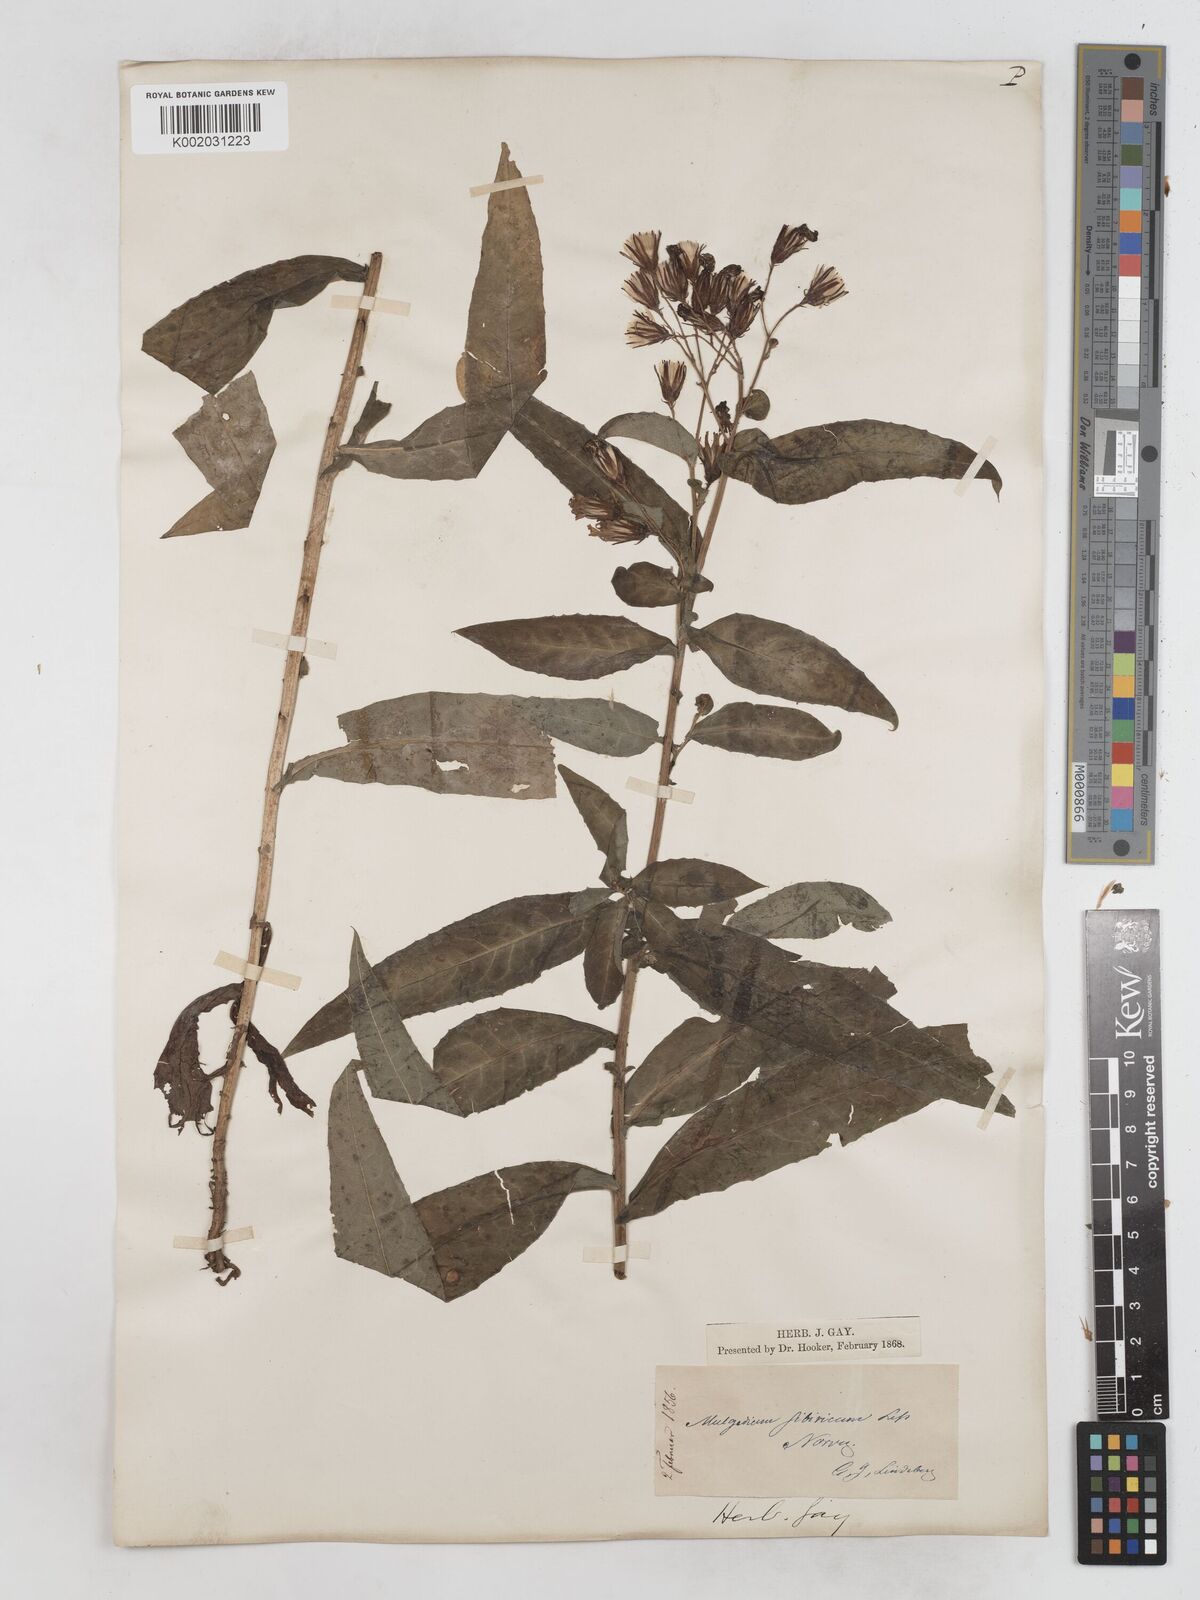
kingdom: Plantae
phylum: Tracheophyta
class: Magnoliopsida
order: Asterales
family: Asteraceae
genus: Lactuca
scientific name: Lactuca sibirica
